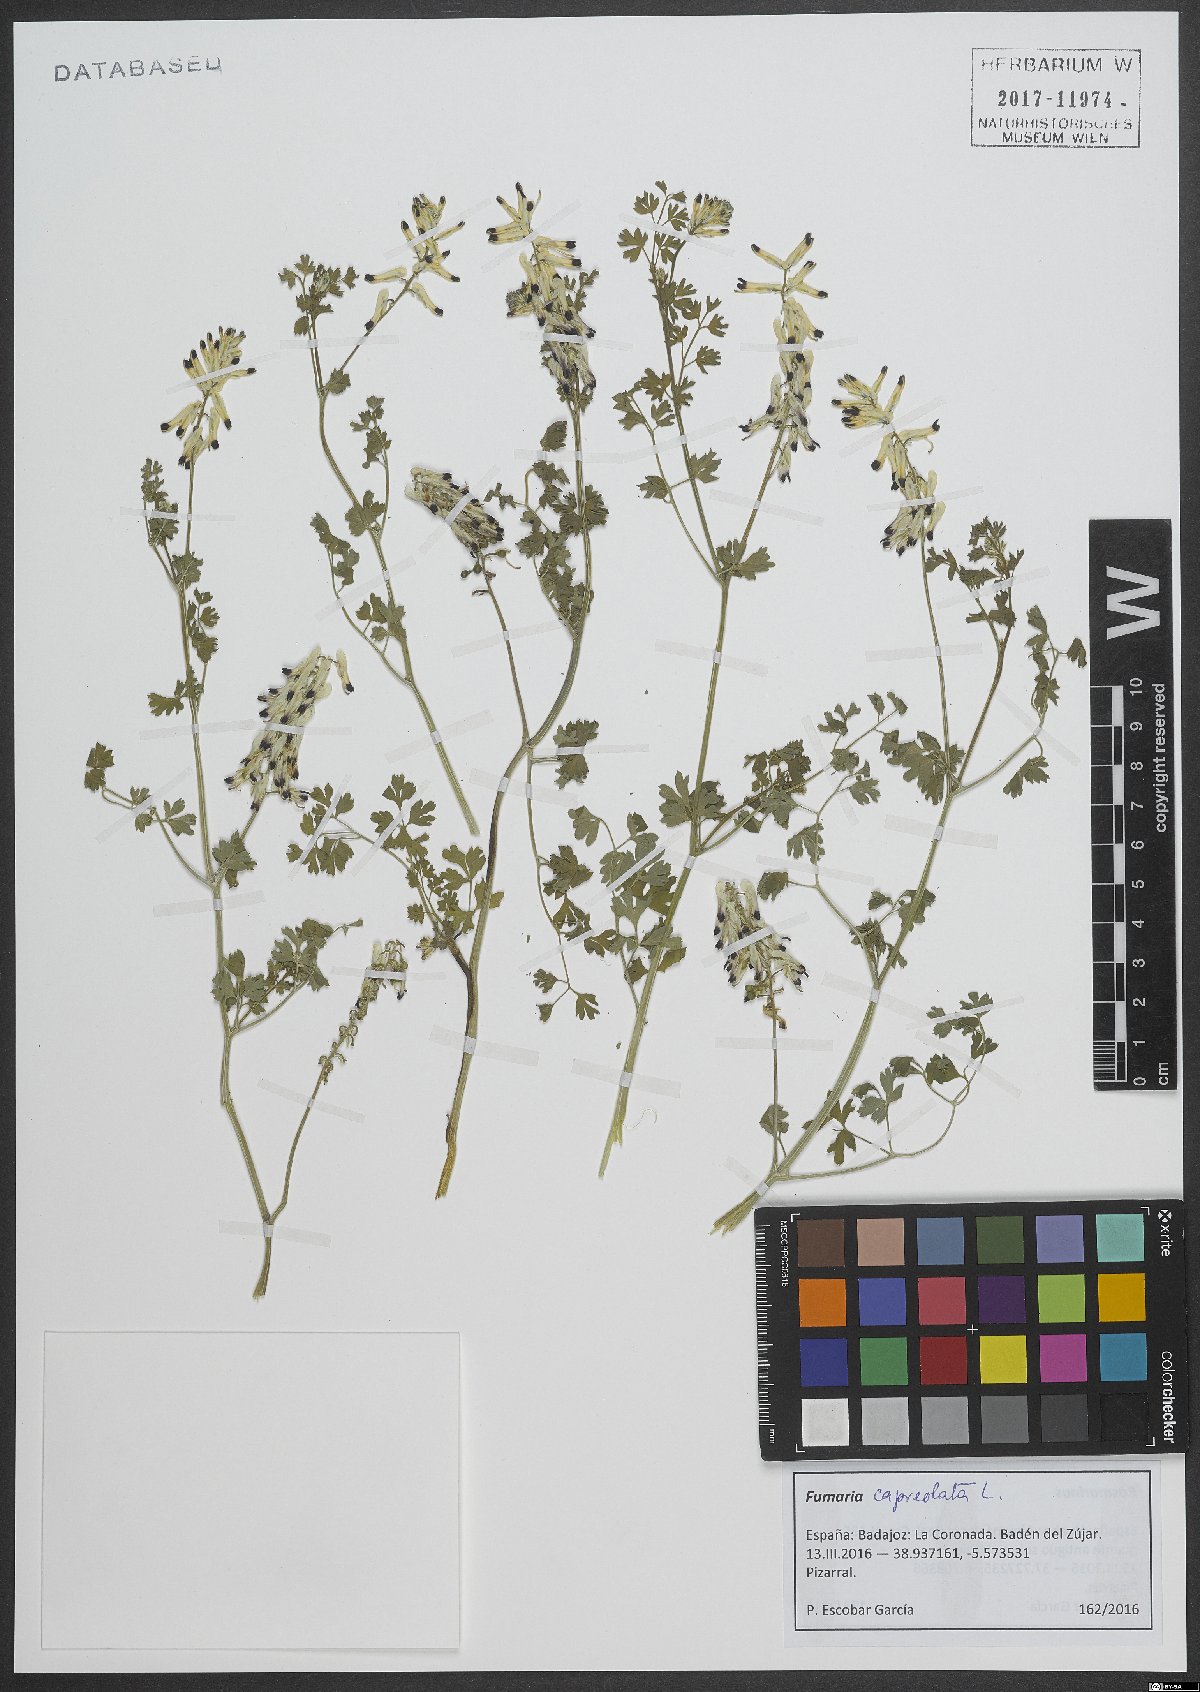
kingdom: Plantae
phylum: Tracheophyta
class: Magnoliopsida
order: Ranunculales
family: Papaveraceae
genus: Fumaria
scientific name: Fumaria capreolata
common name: White ramping-fumitory
